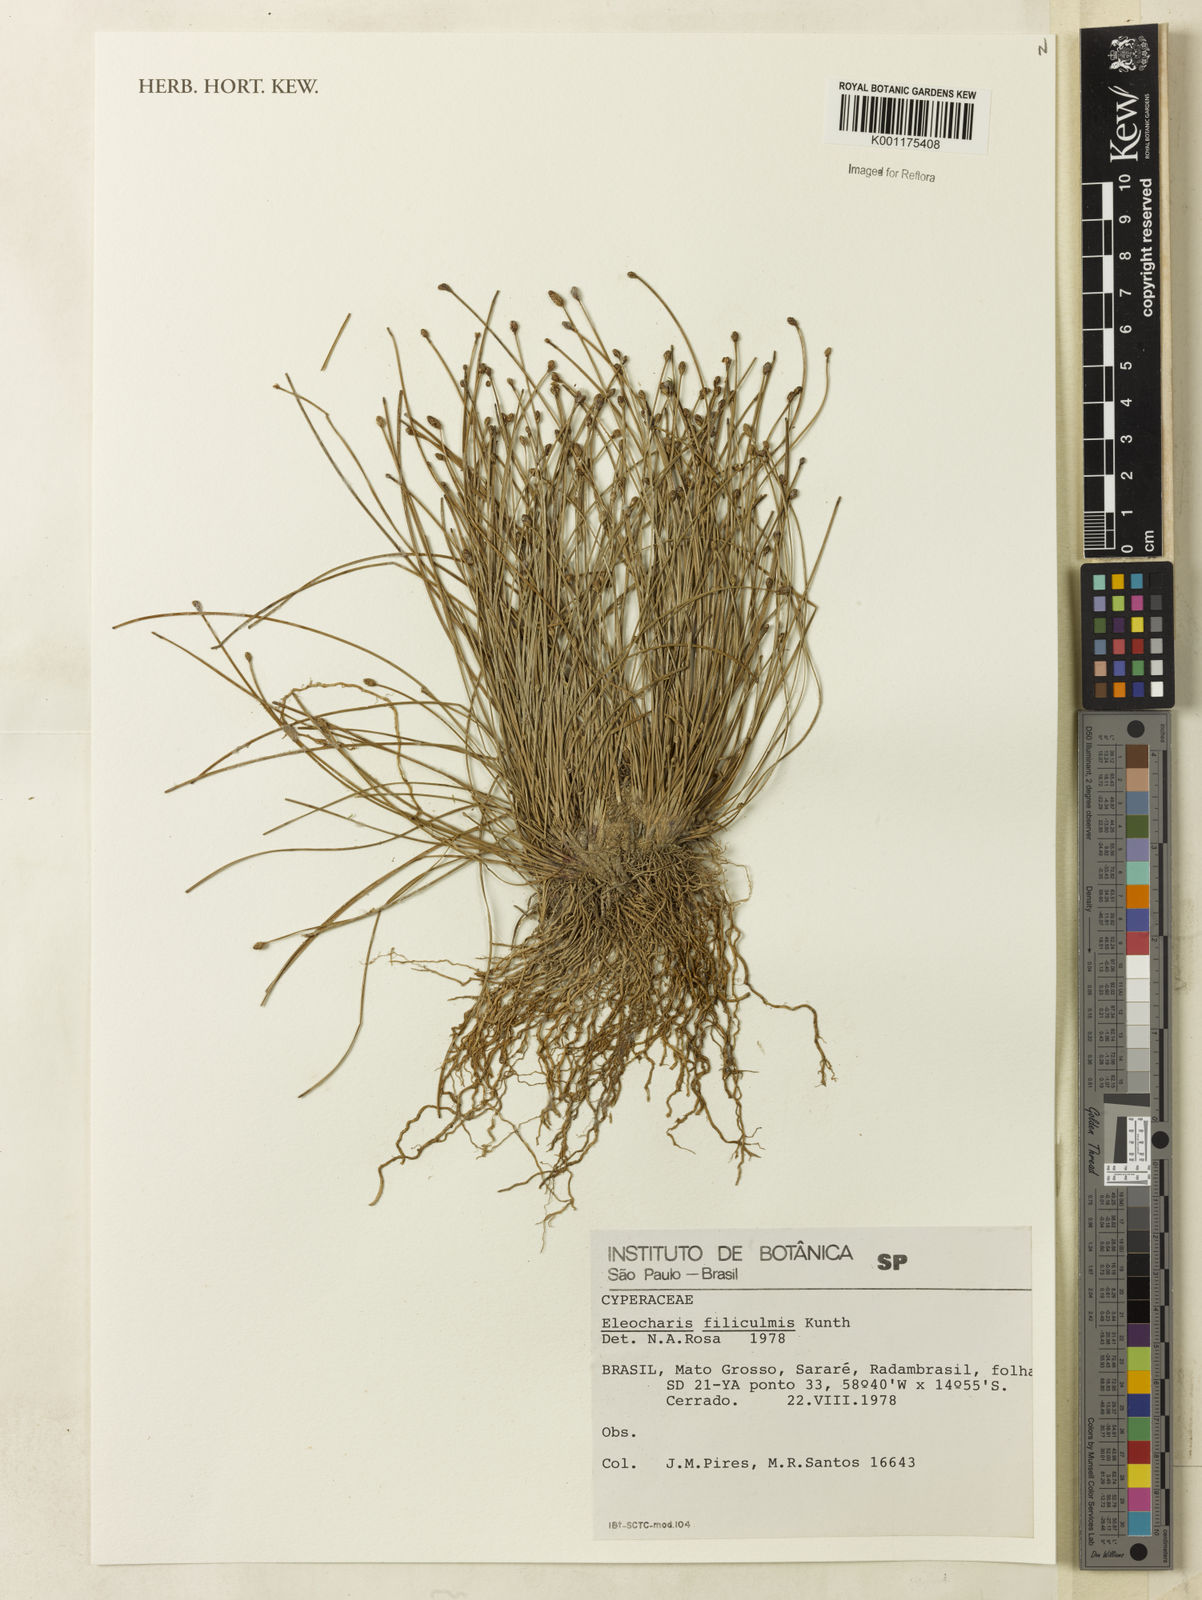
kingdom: Plantae
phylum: Tracheophyta
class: Liliopsida
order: Poales
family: Cyperaceae
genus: Eleocharis
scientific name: Eleocharis filiculmis
